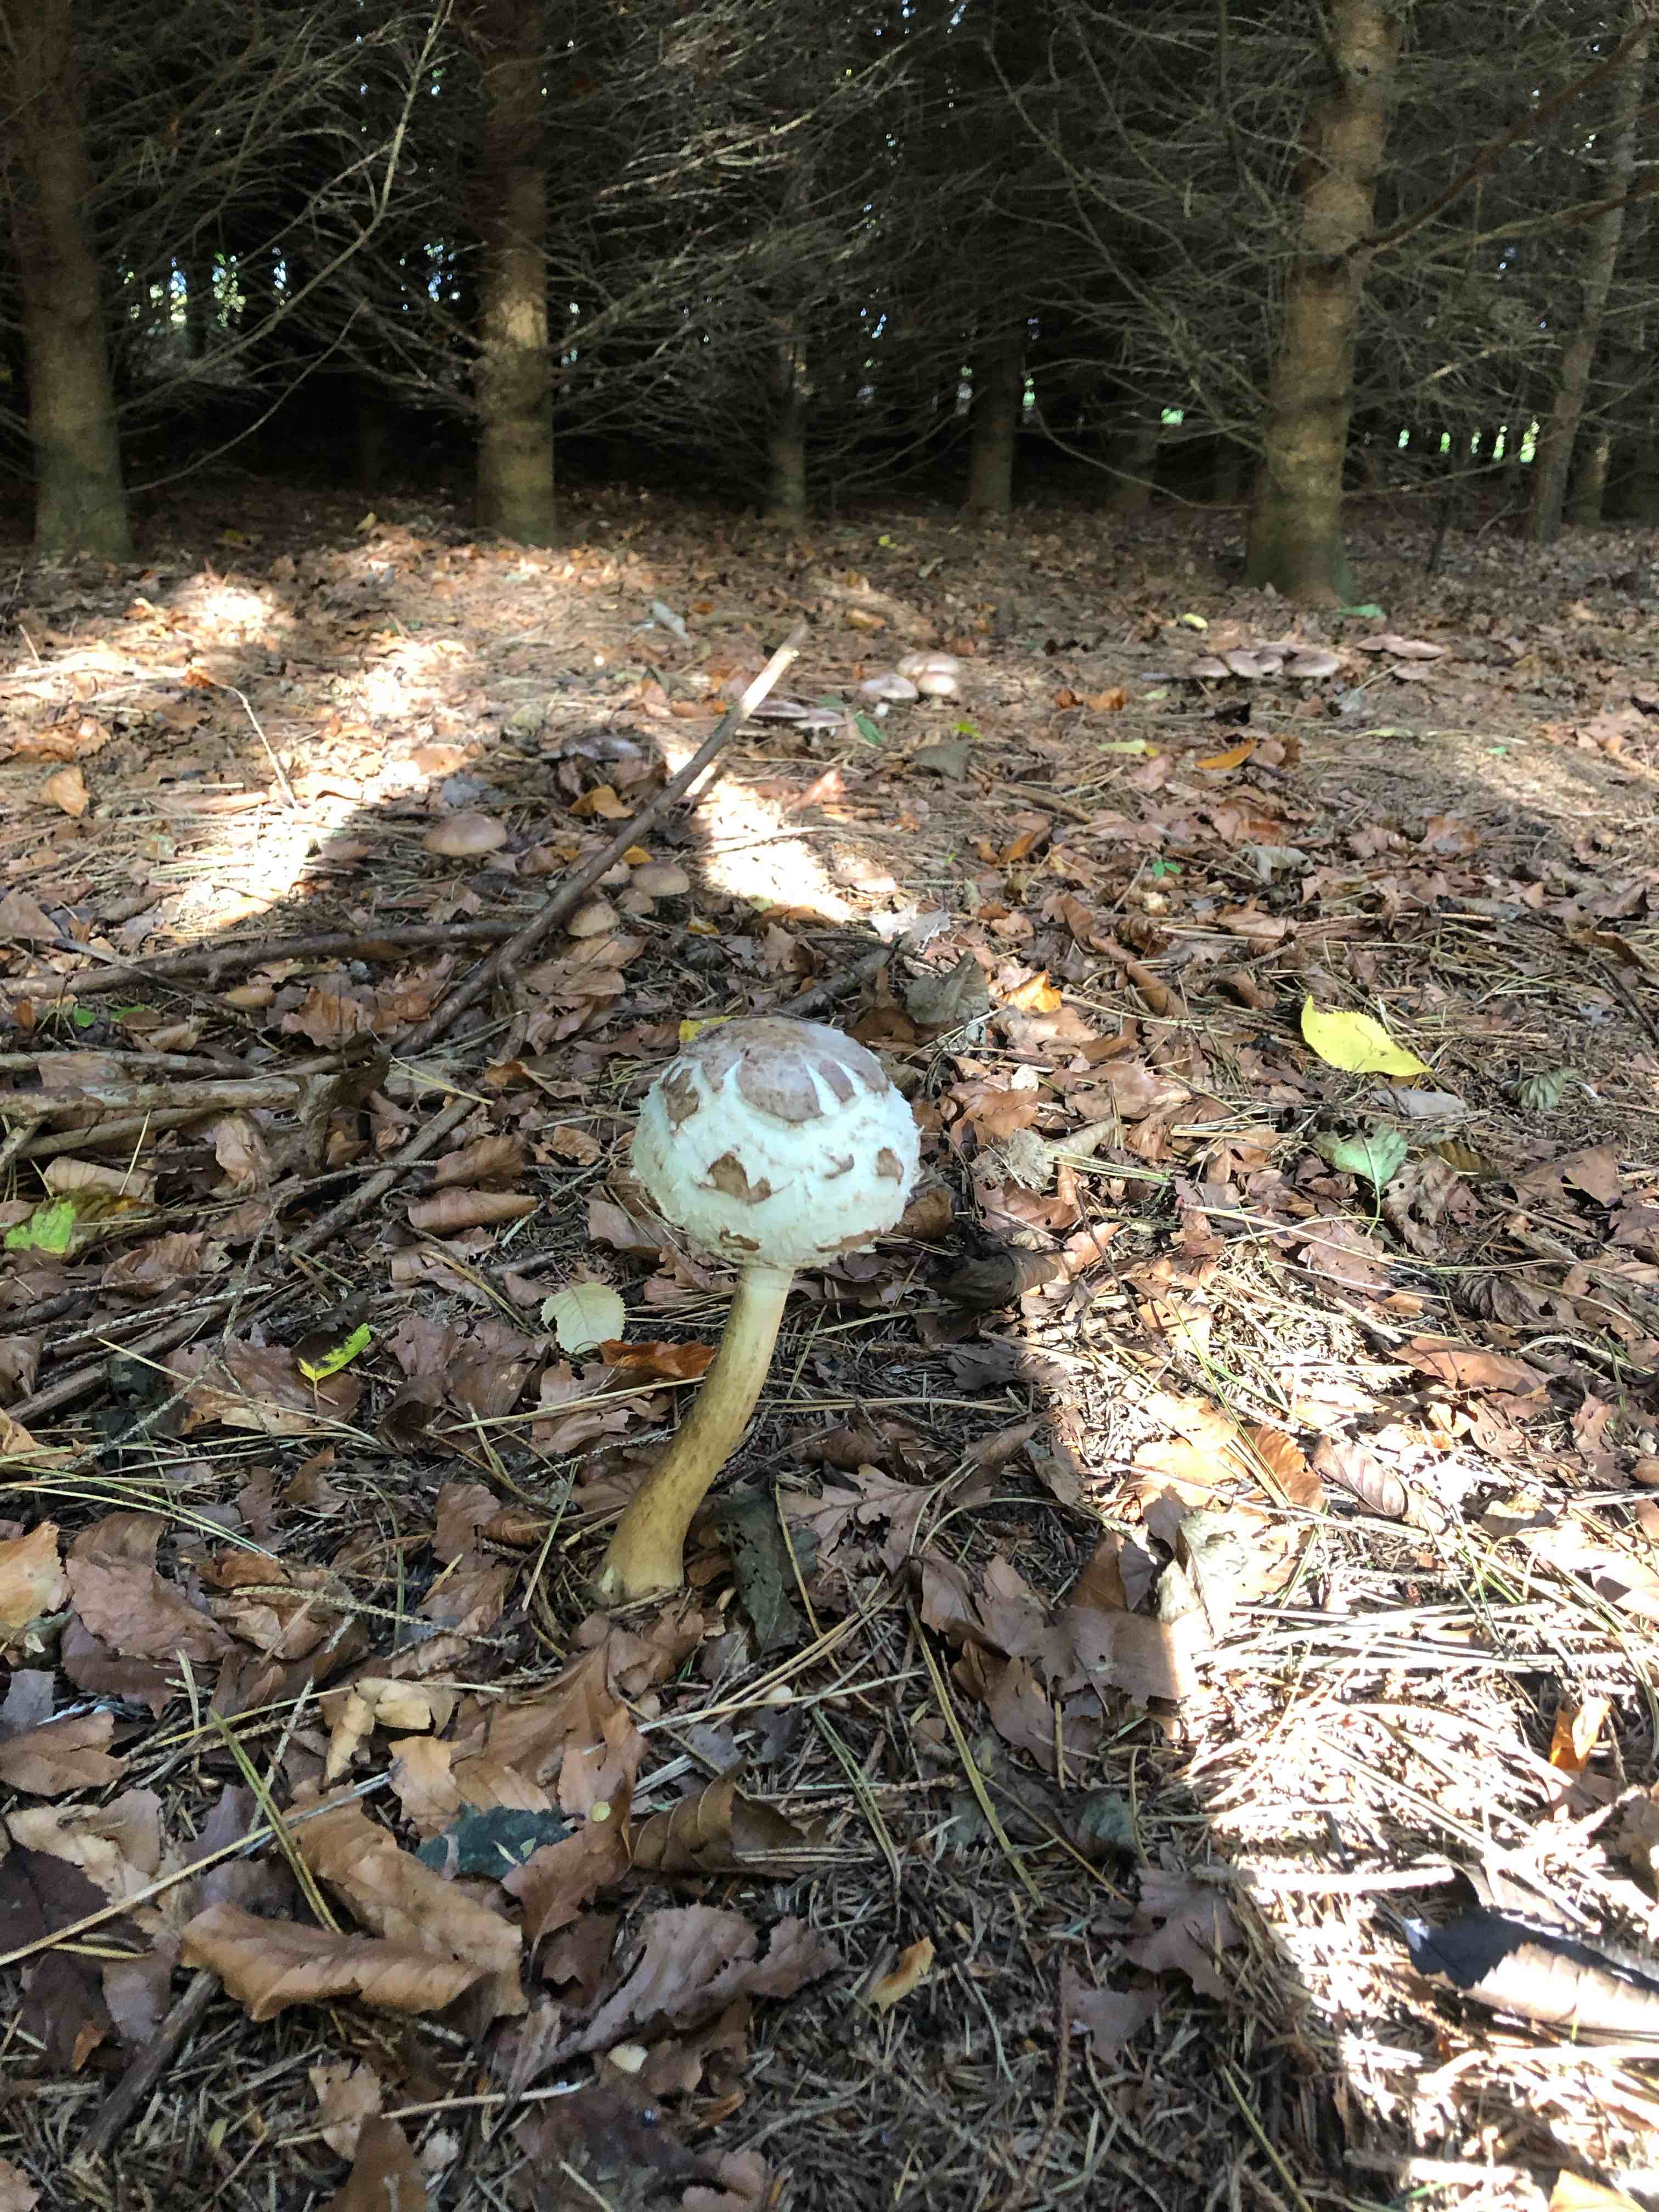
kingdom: Fungi
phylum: Basidiomycota
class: Agaricomycetes
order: Agaricales
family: Agaricaceae
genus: Chlorophyllum
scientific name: Chlorophyllum rhacodes
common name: ægte rabarberhat
